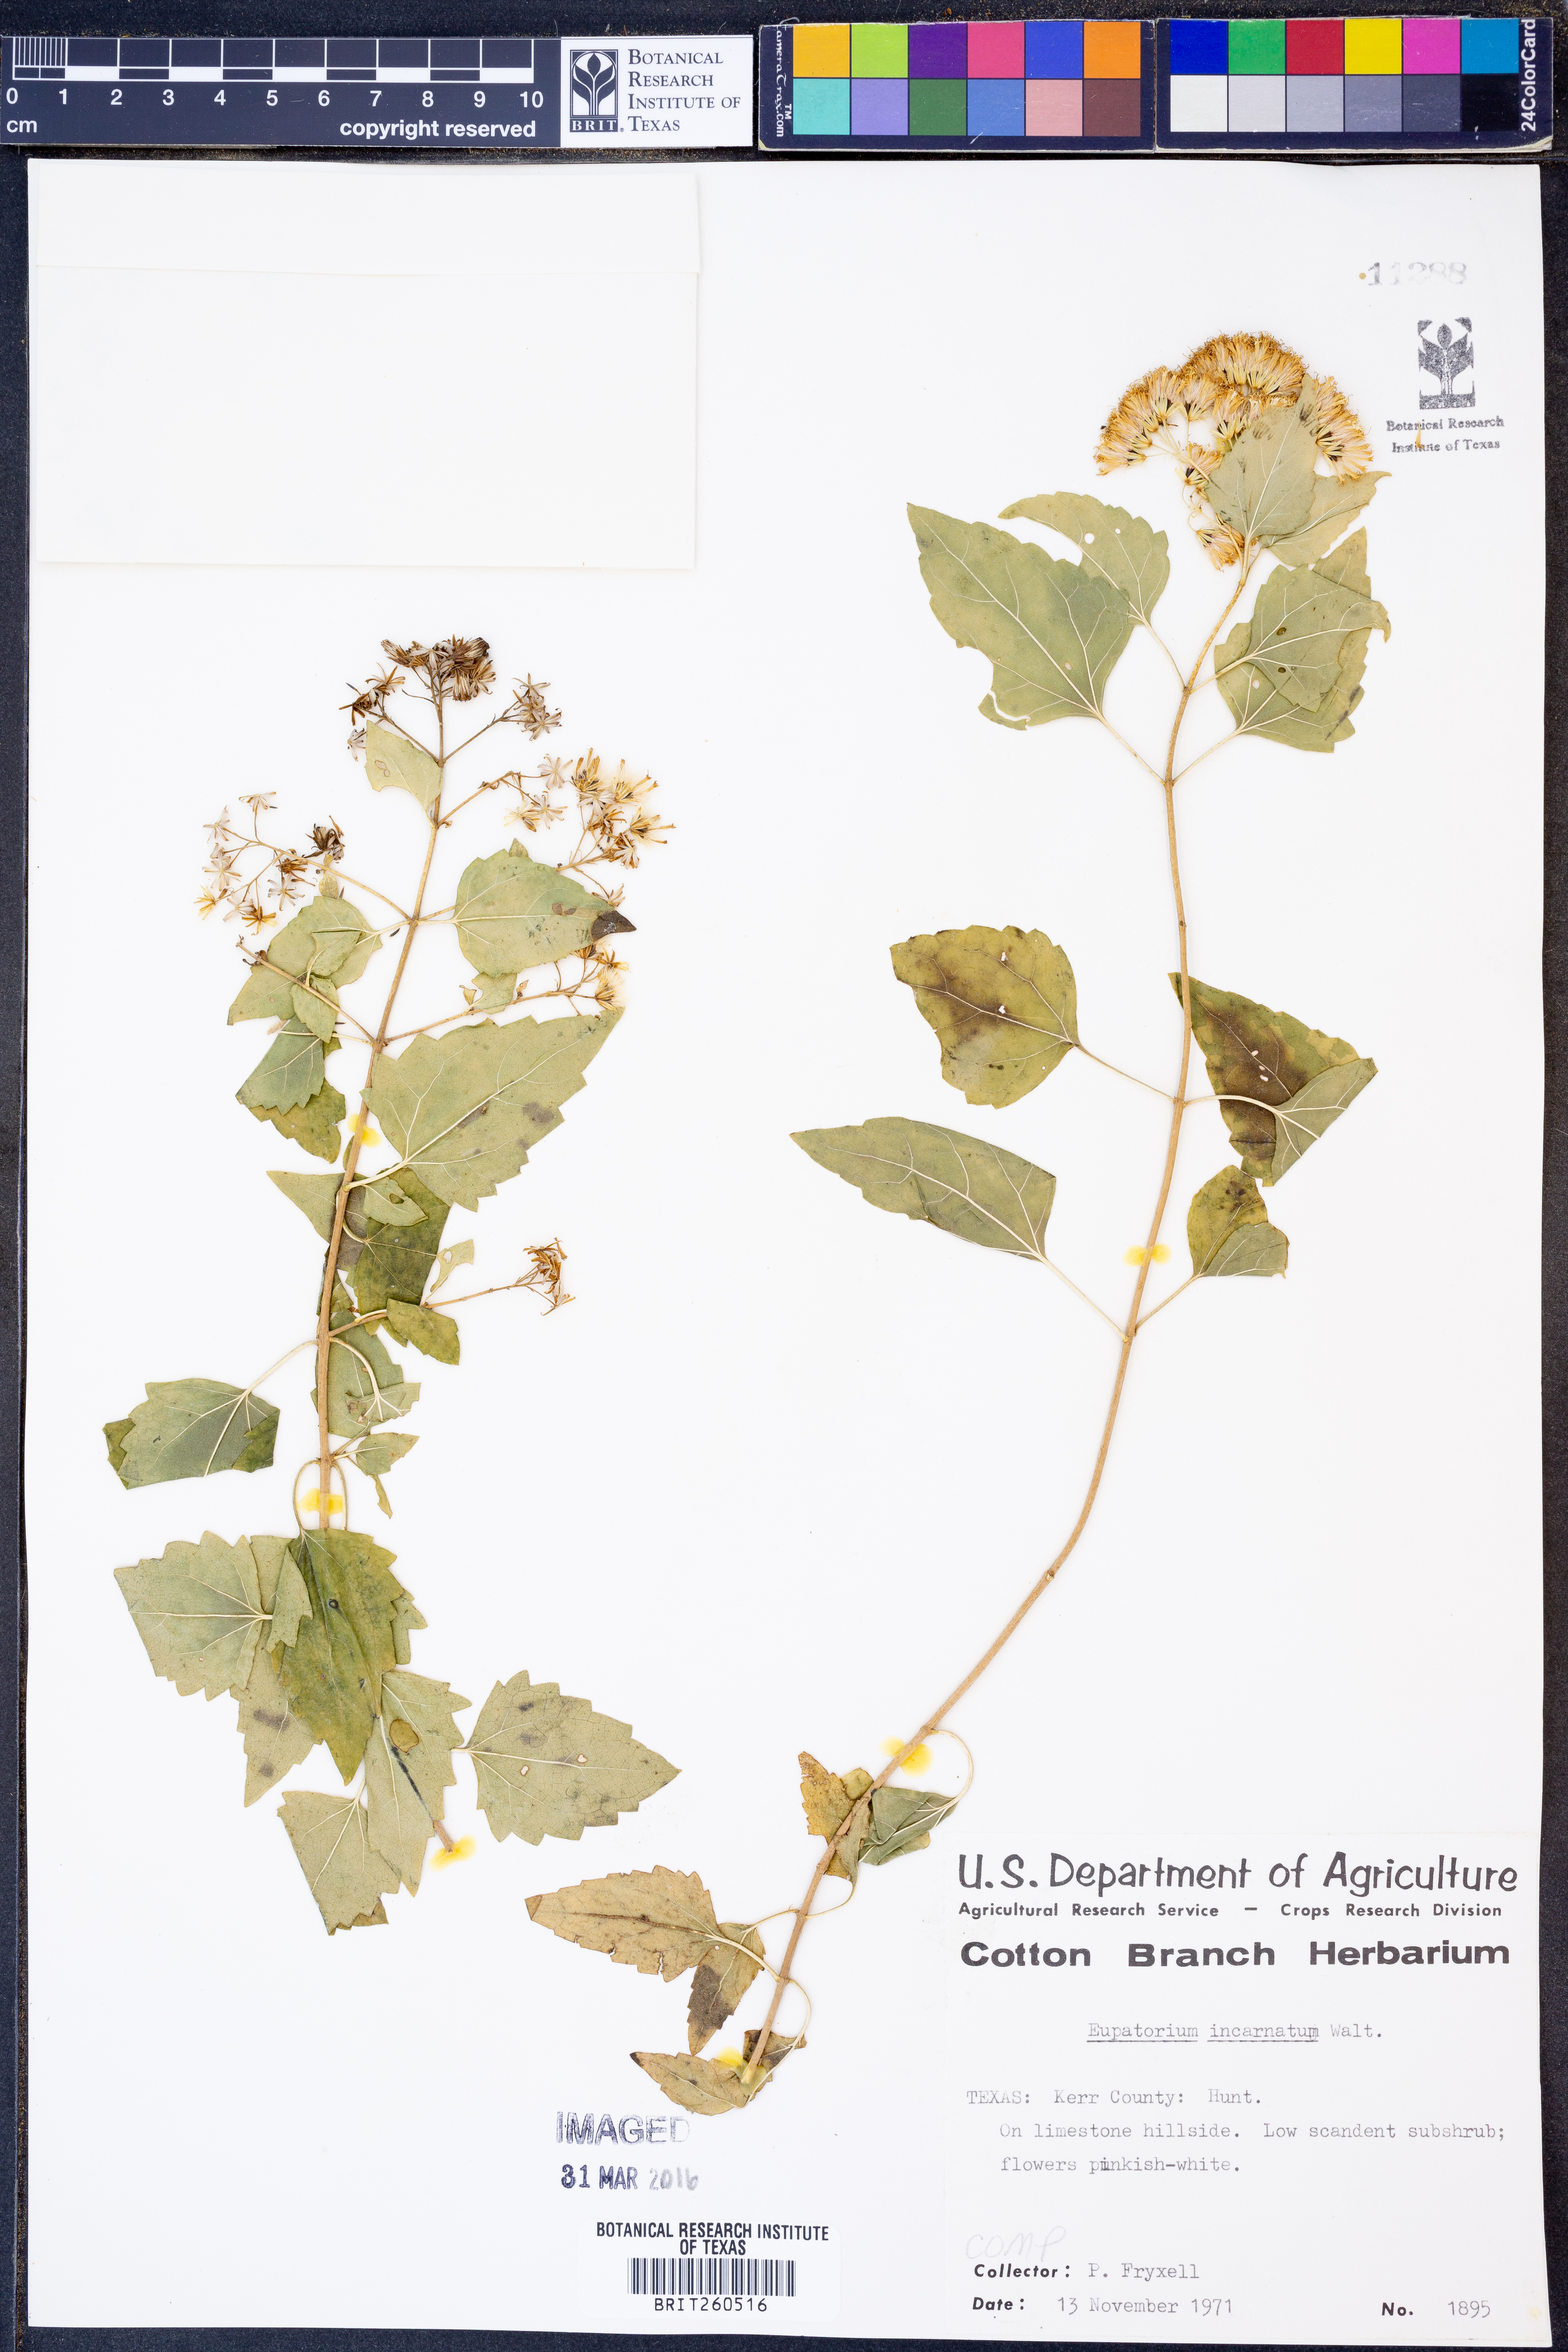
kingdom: Plantae
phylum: Tracheophyta
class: Magnoliopsida
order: Asterales
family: Asteraceae
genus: Fleischmannia
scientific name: Fleischmannia incarnata
